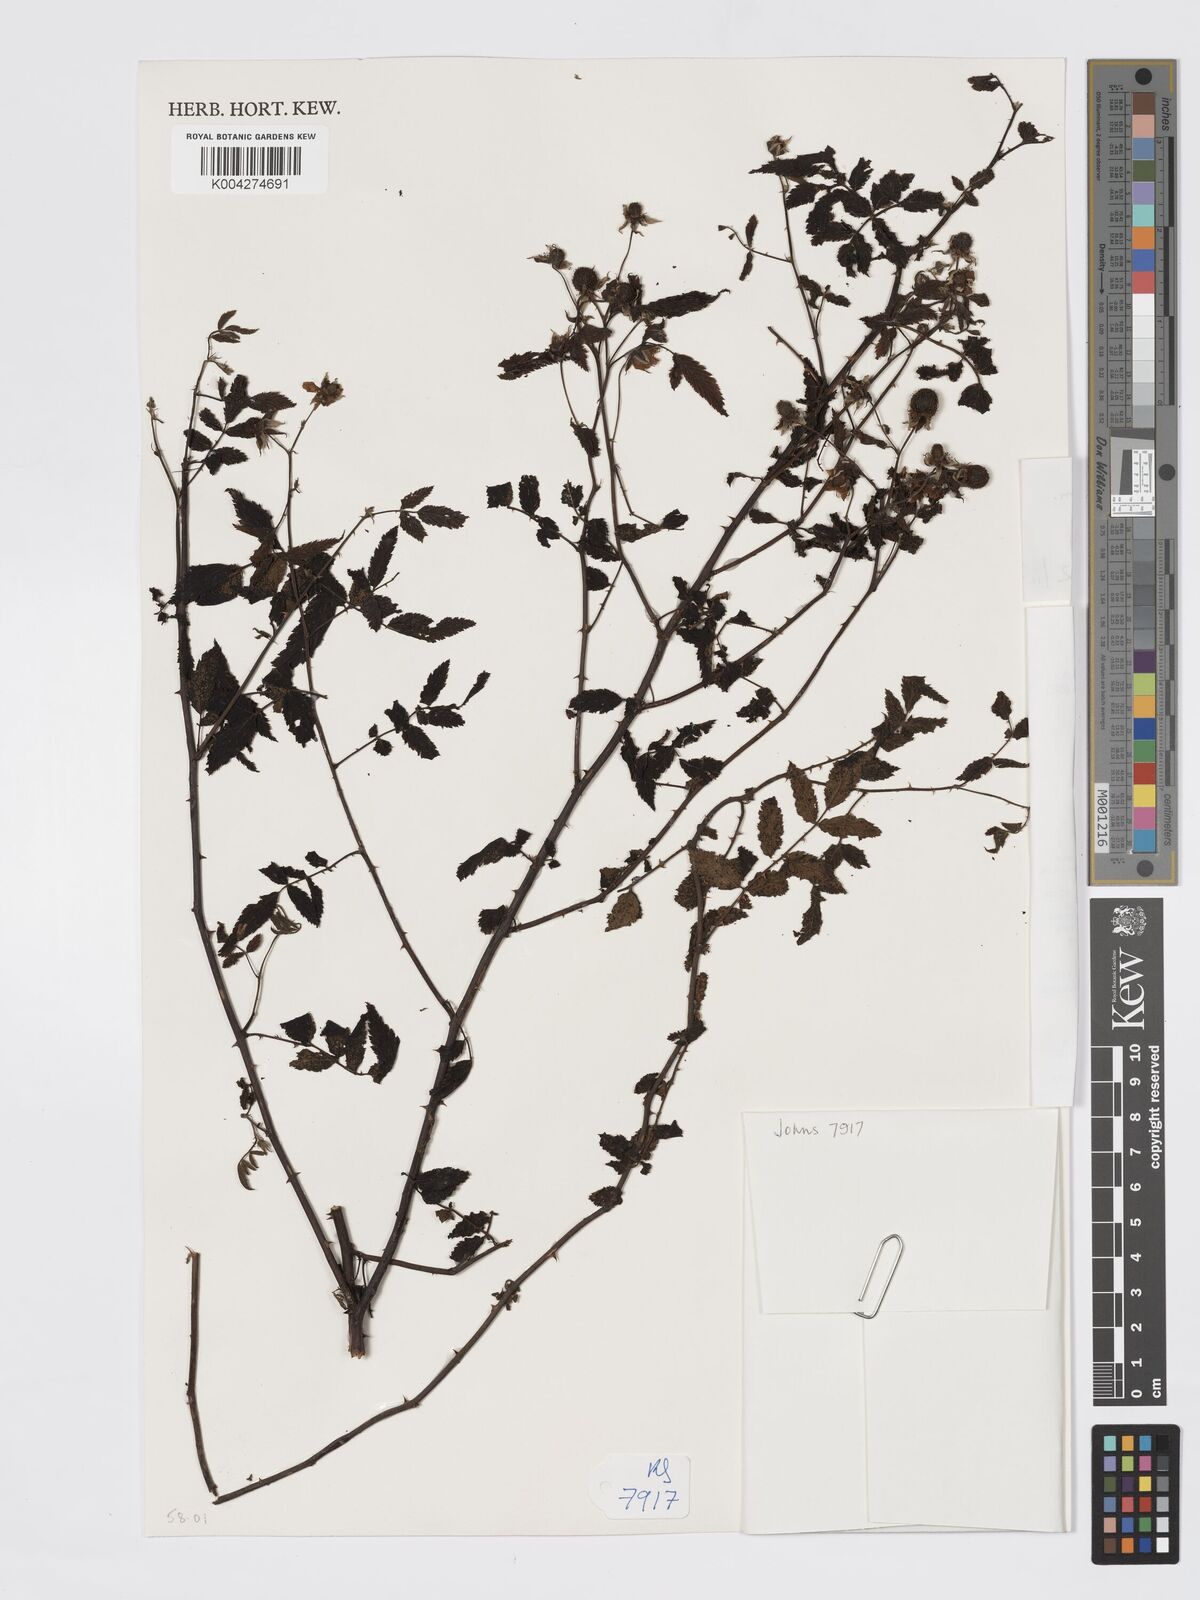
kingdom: Plantae
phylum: Tracheophyta
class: Magnoliopsida
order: Rosales
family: Rosaceae
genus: Rubus
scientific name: Rubus
